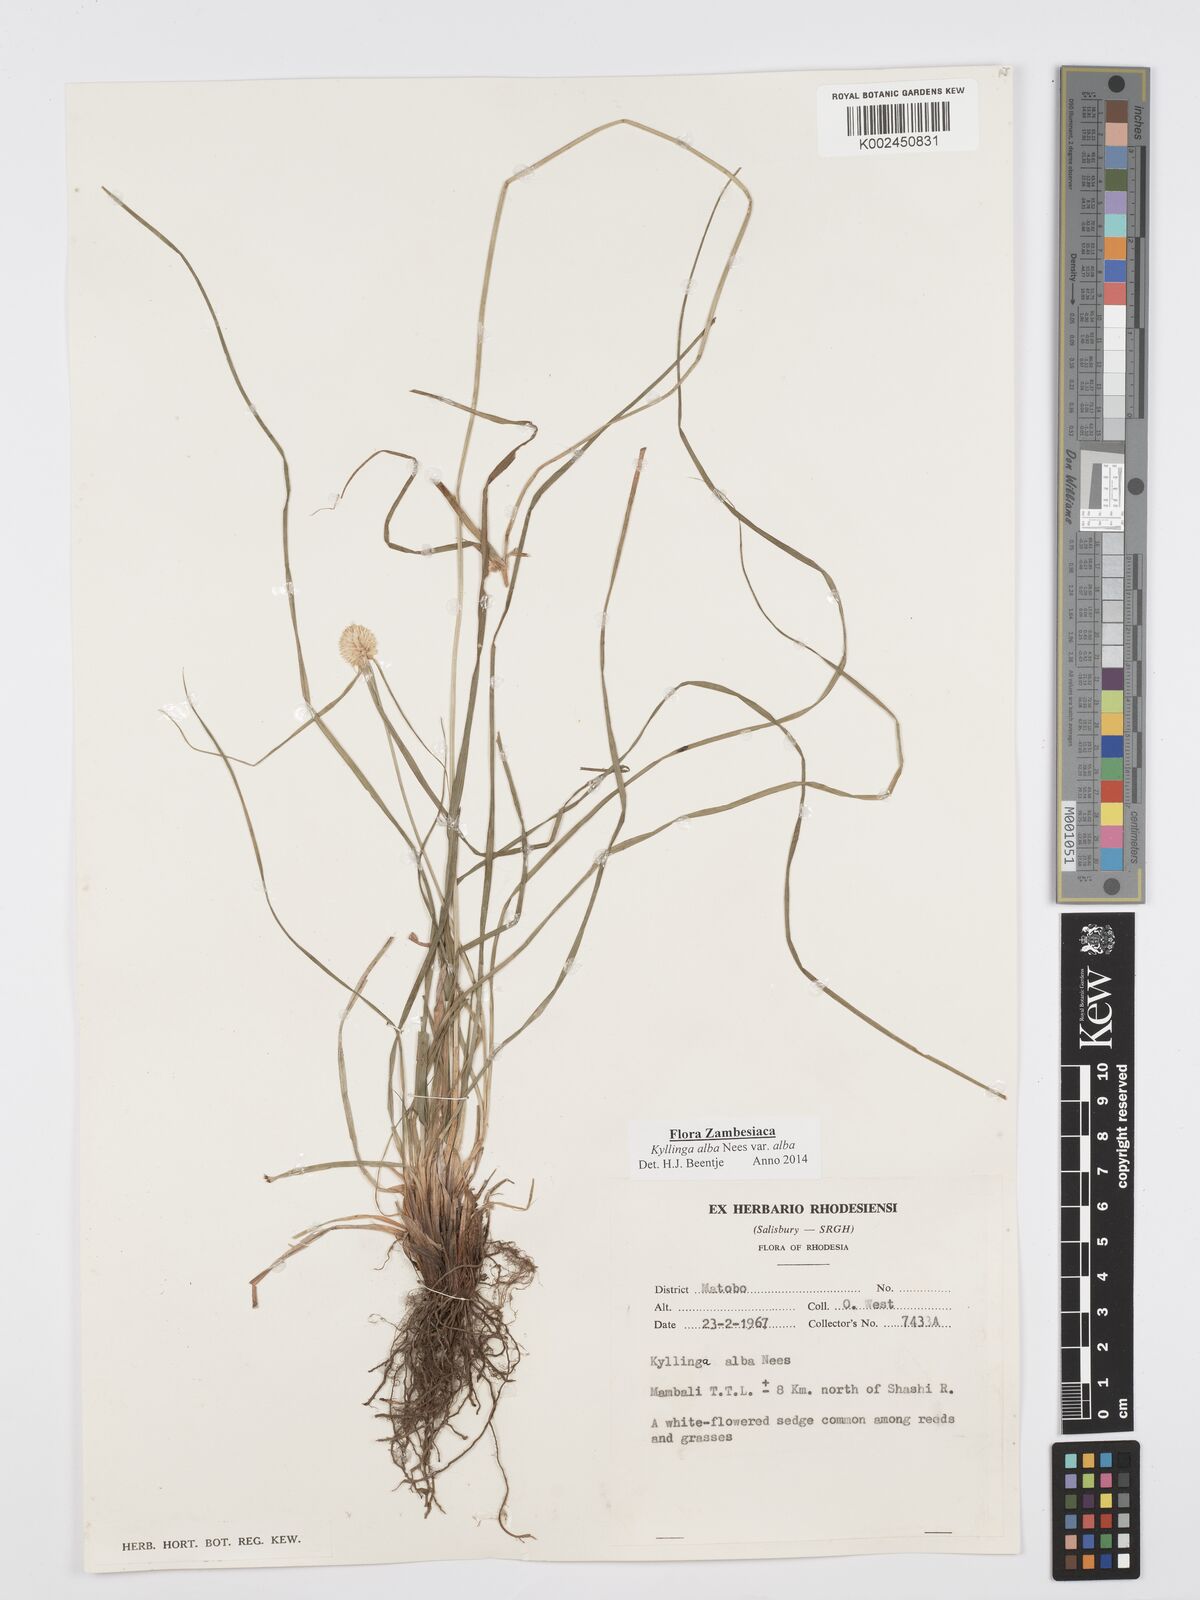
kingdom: Plantae
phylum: Tracheophyta
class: Liliopsida
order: Poales
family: Cyperaceae
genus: Cyperus
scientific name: Cyperus
